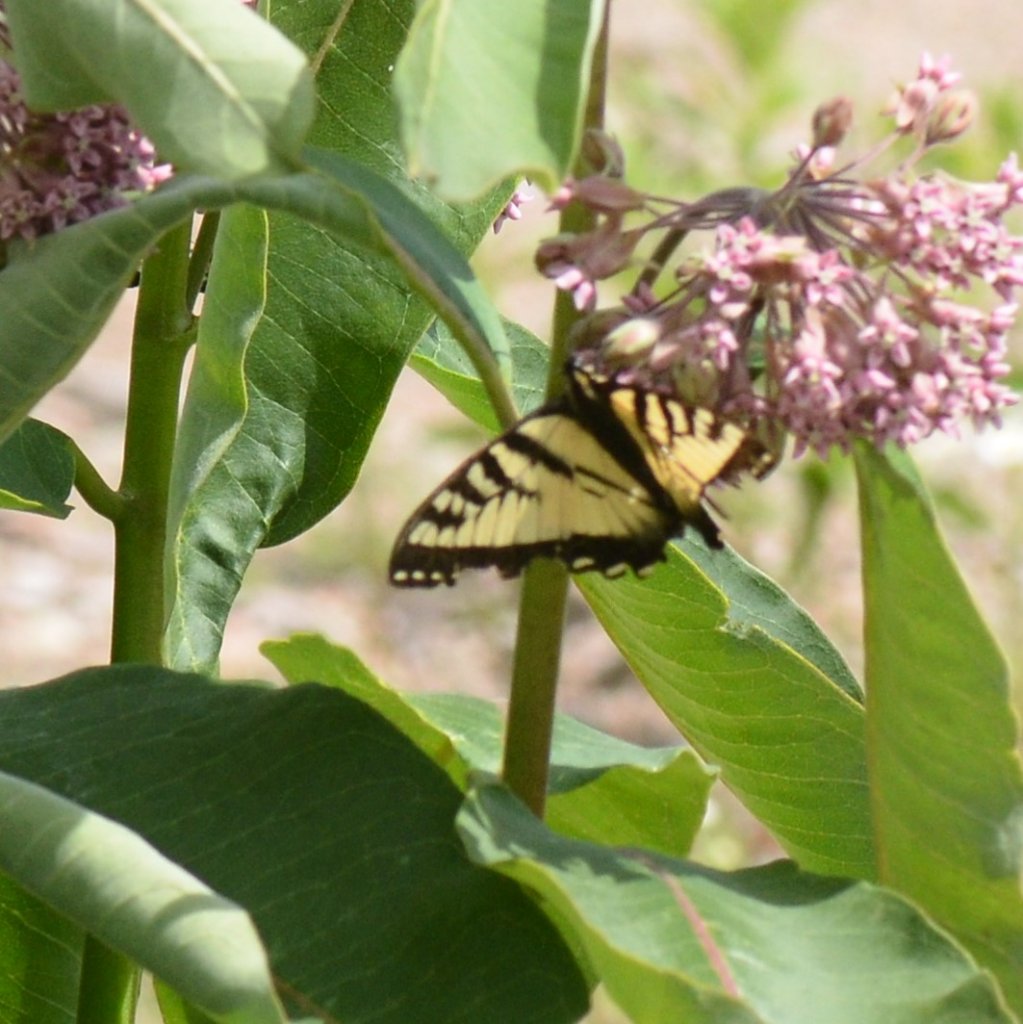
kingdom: Animalia
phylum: Arthropoda
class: Insecta
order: Lepidoptera
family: Papilionidae
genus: Pterourus
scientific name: Pterourus canadensis
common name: Canadian Tiger Swallowtail
